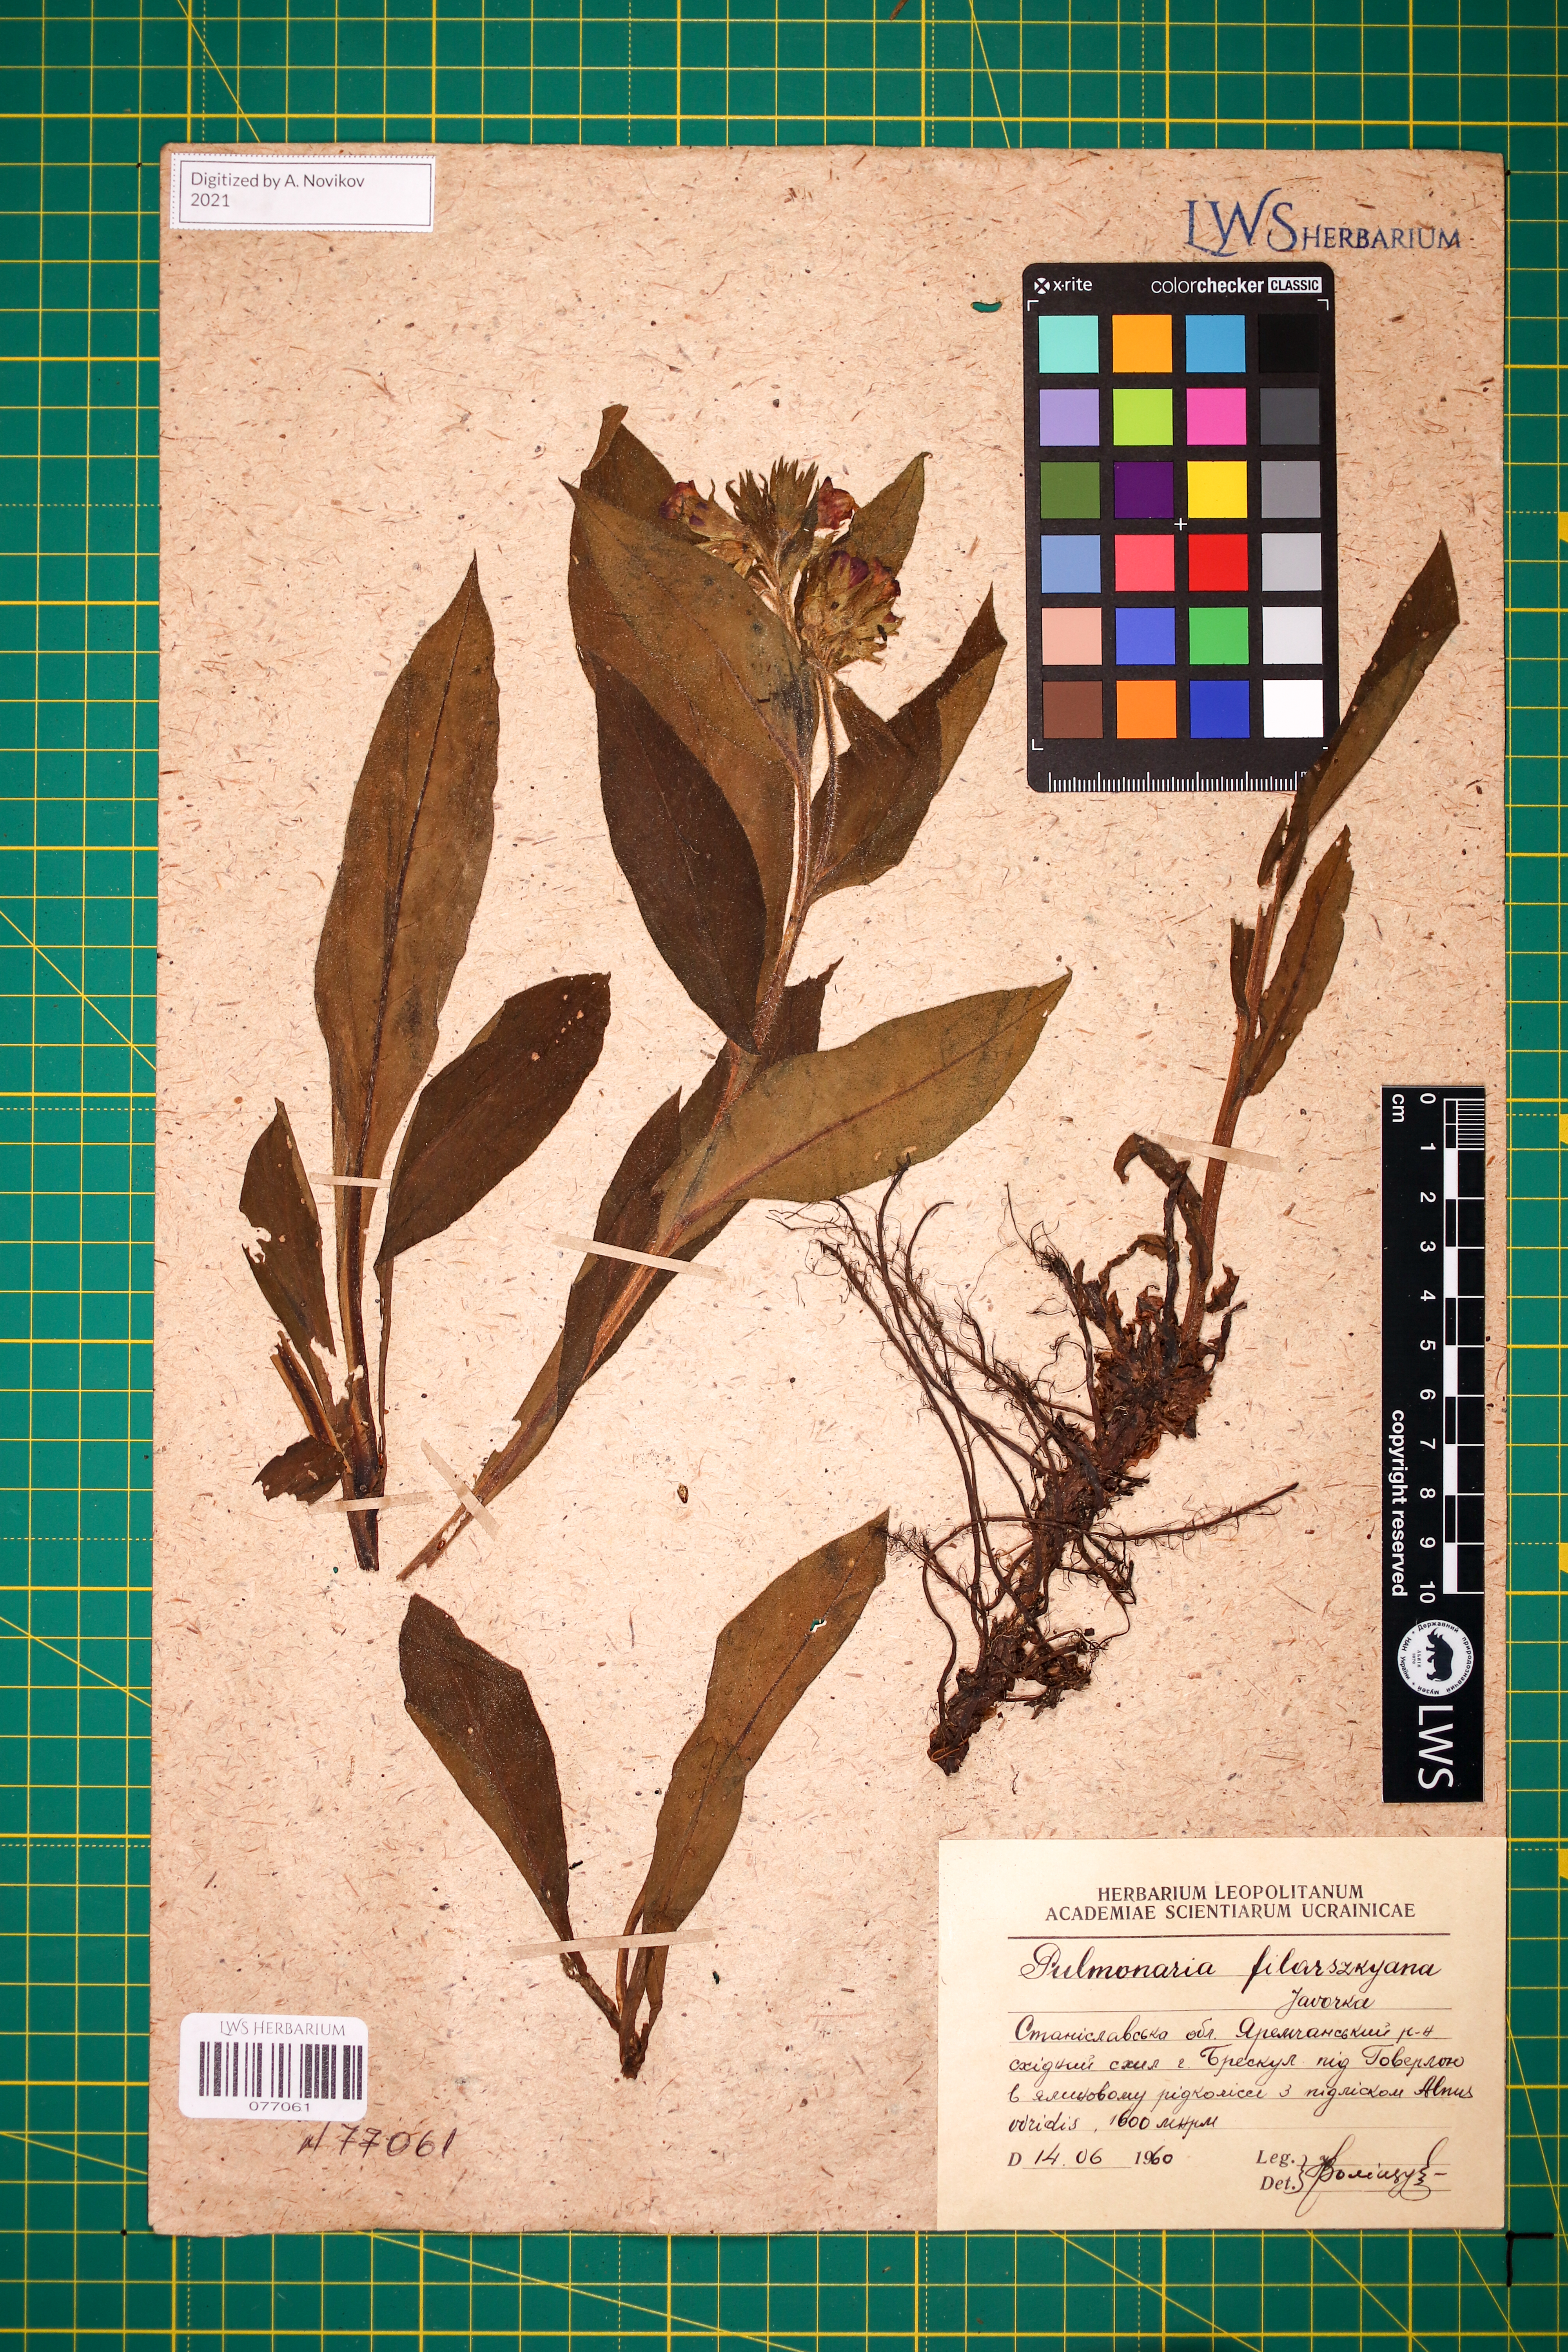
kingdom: Plantae
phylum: Tracheophyta
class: Magnoliopsida
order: Boraginales
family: Boraginaceae
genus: Pulmonaria
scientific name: Pulmonaria filarszkyana
